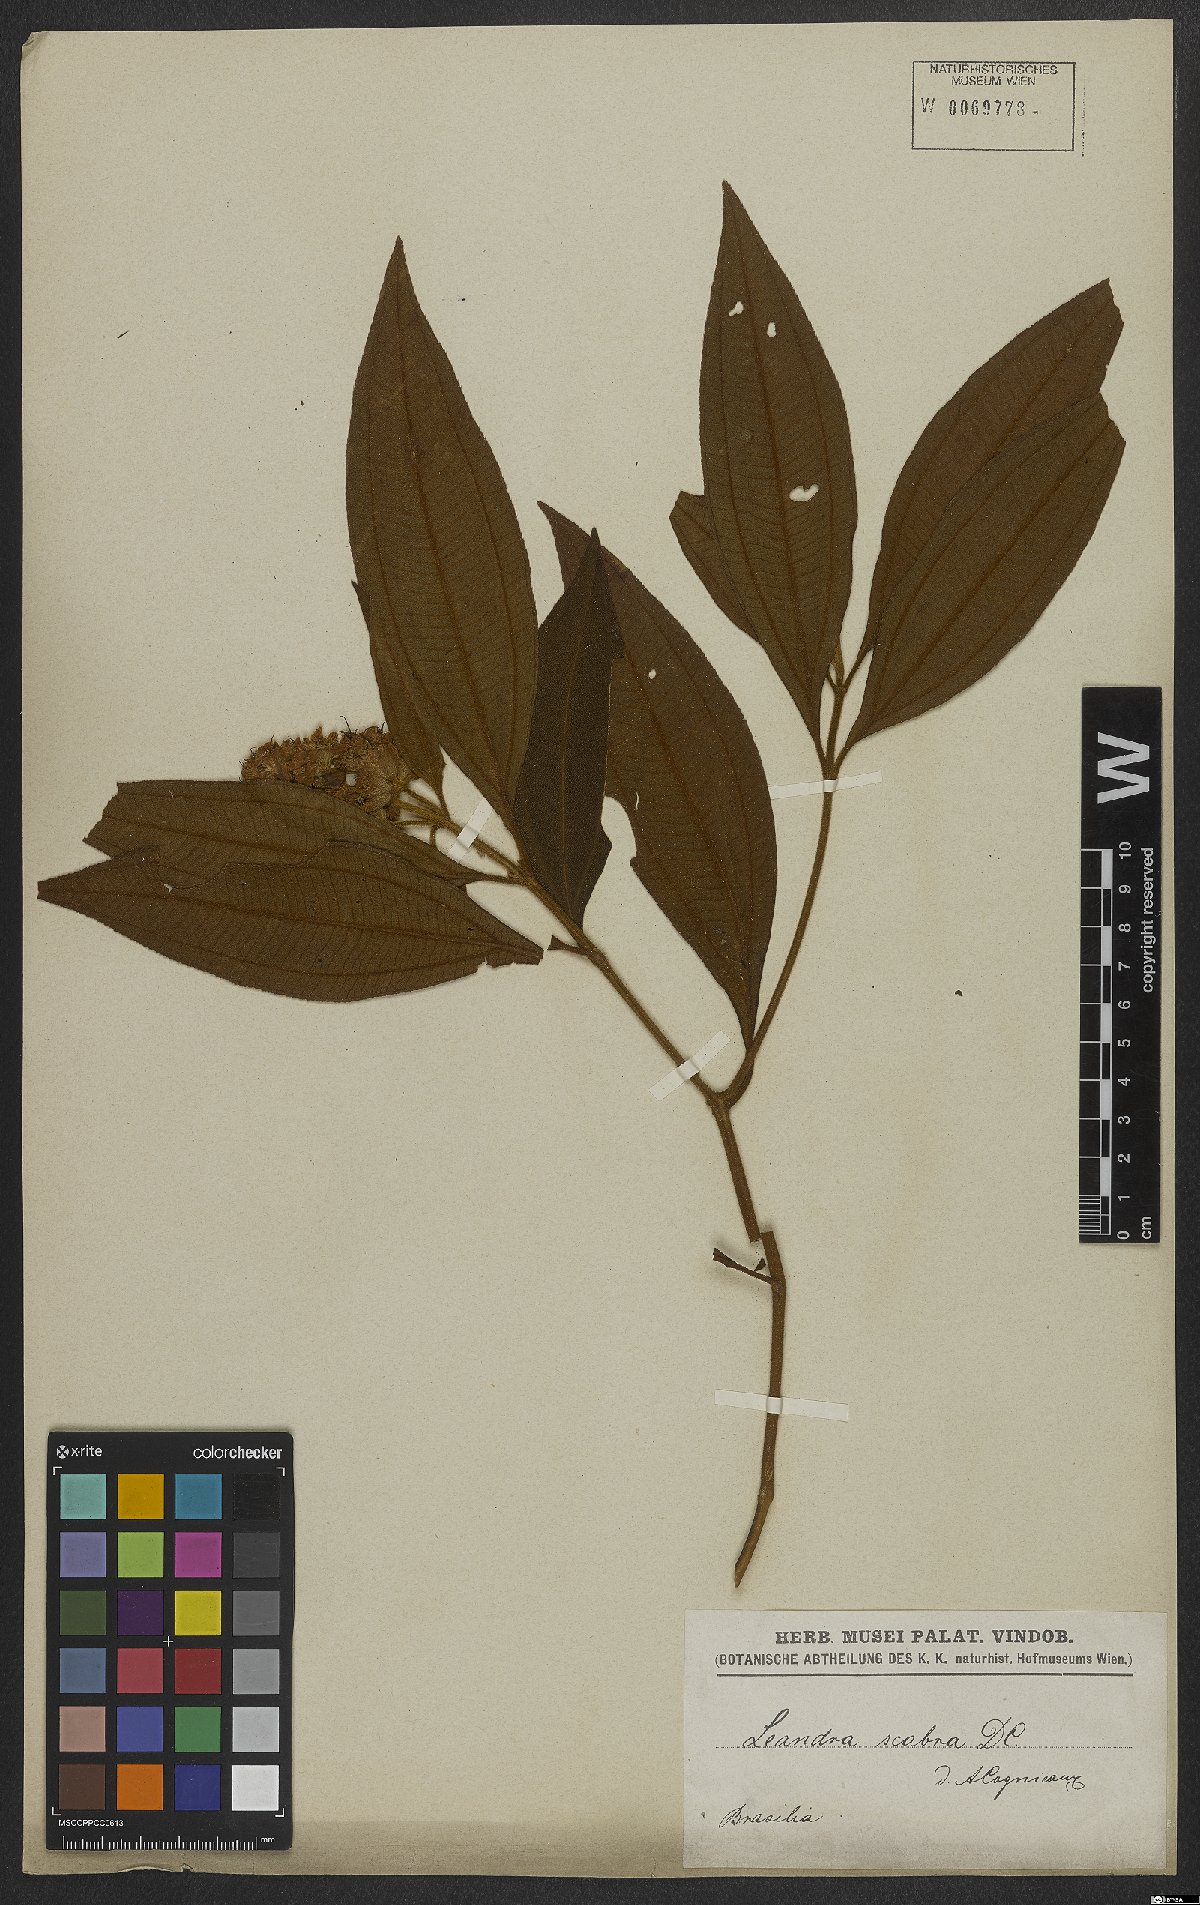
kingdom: Plantae
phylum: Tracheophyta
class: Magnoliopsida
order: Myrtales
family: Melastomataceae
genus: Miconia
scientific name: Miconia melastomoides
